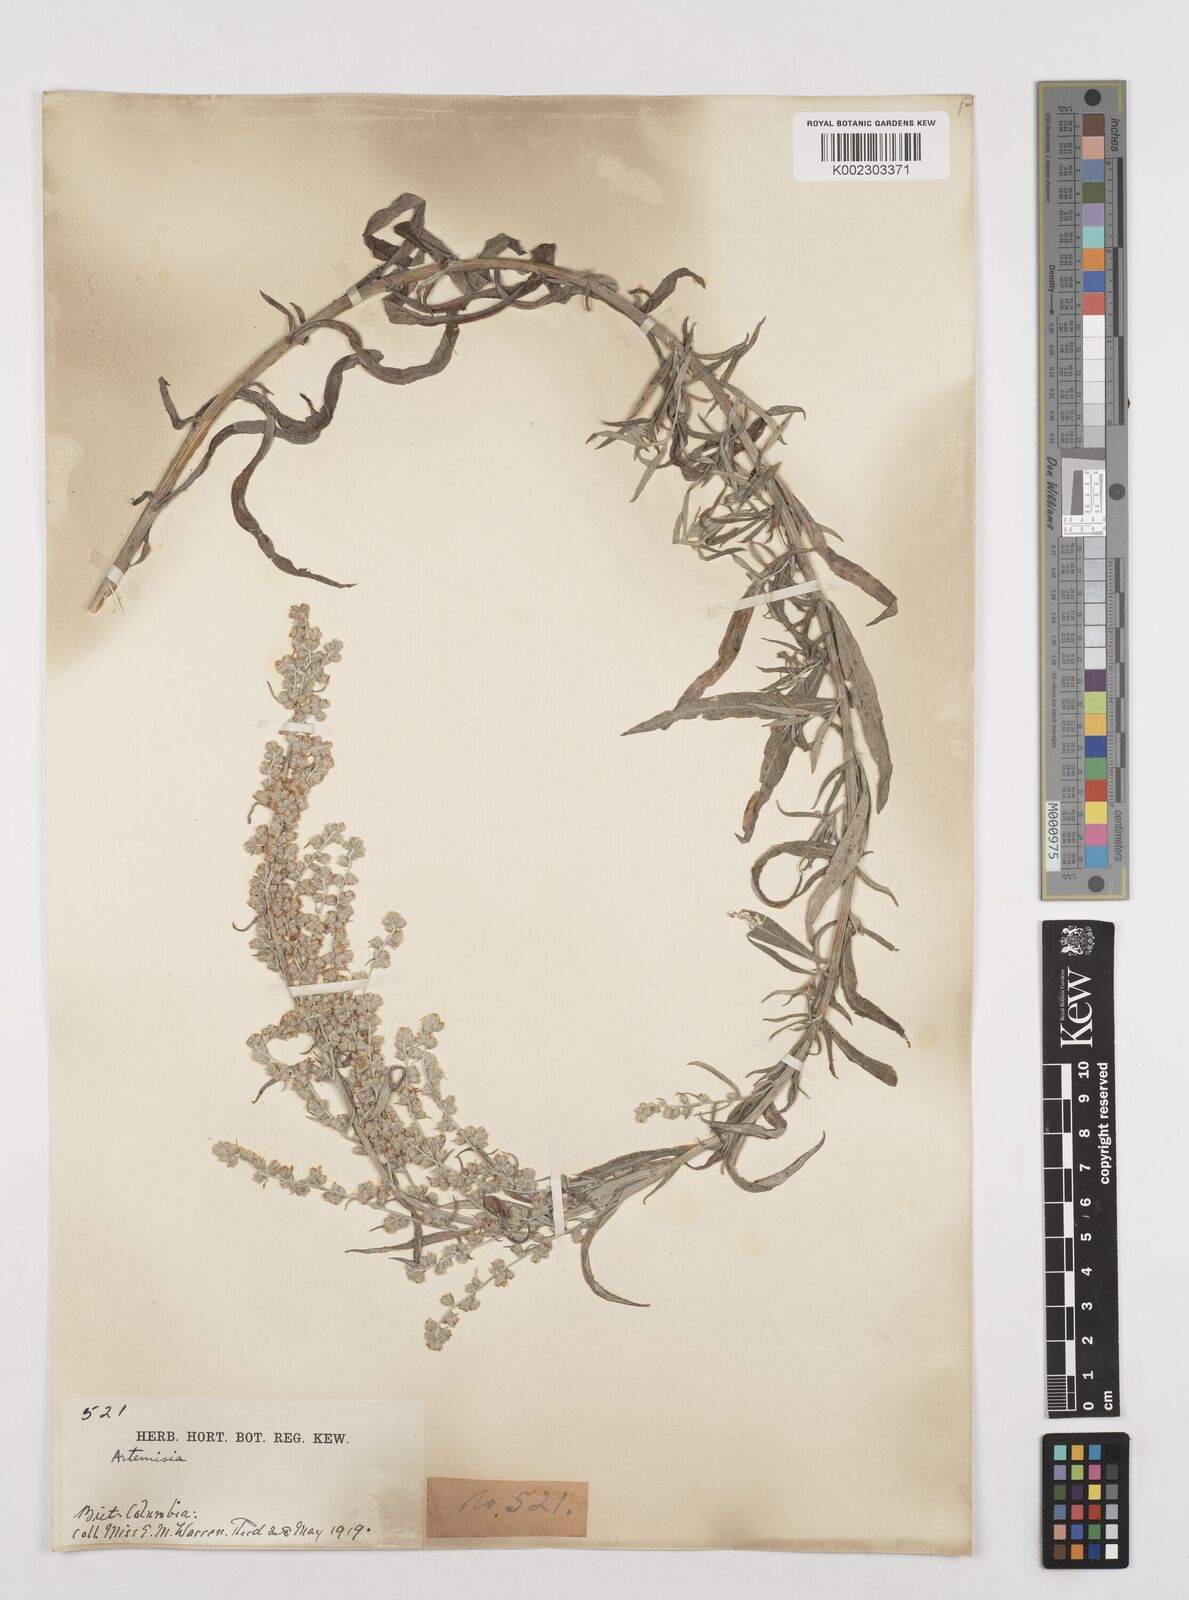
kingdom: Plantae
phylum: Tracheophyta
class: Magnoliopsida
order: Asterales
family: Asteraceae
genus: Artemisia
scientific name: Artemisia
